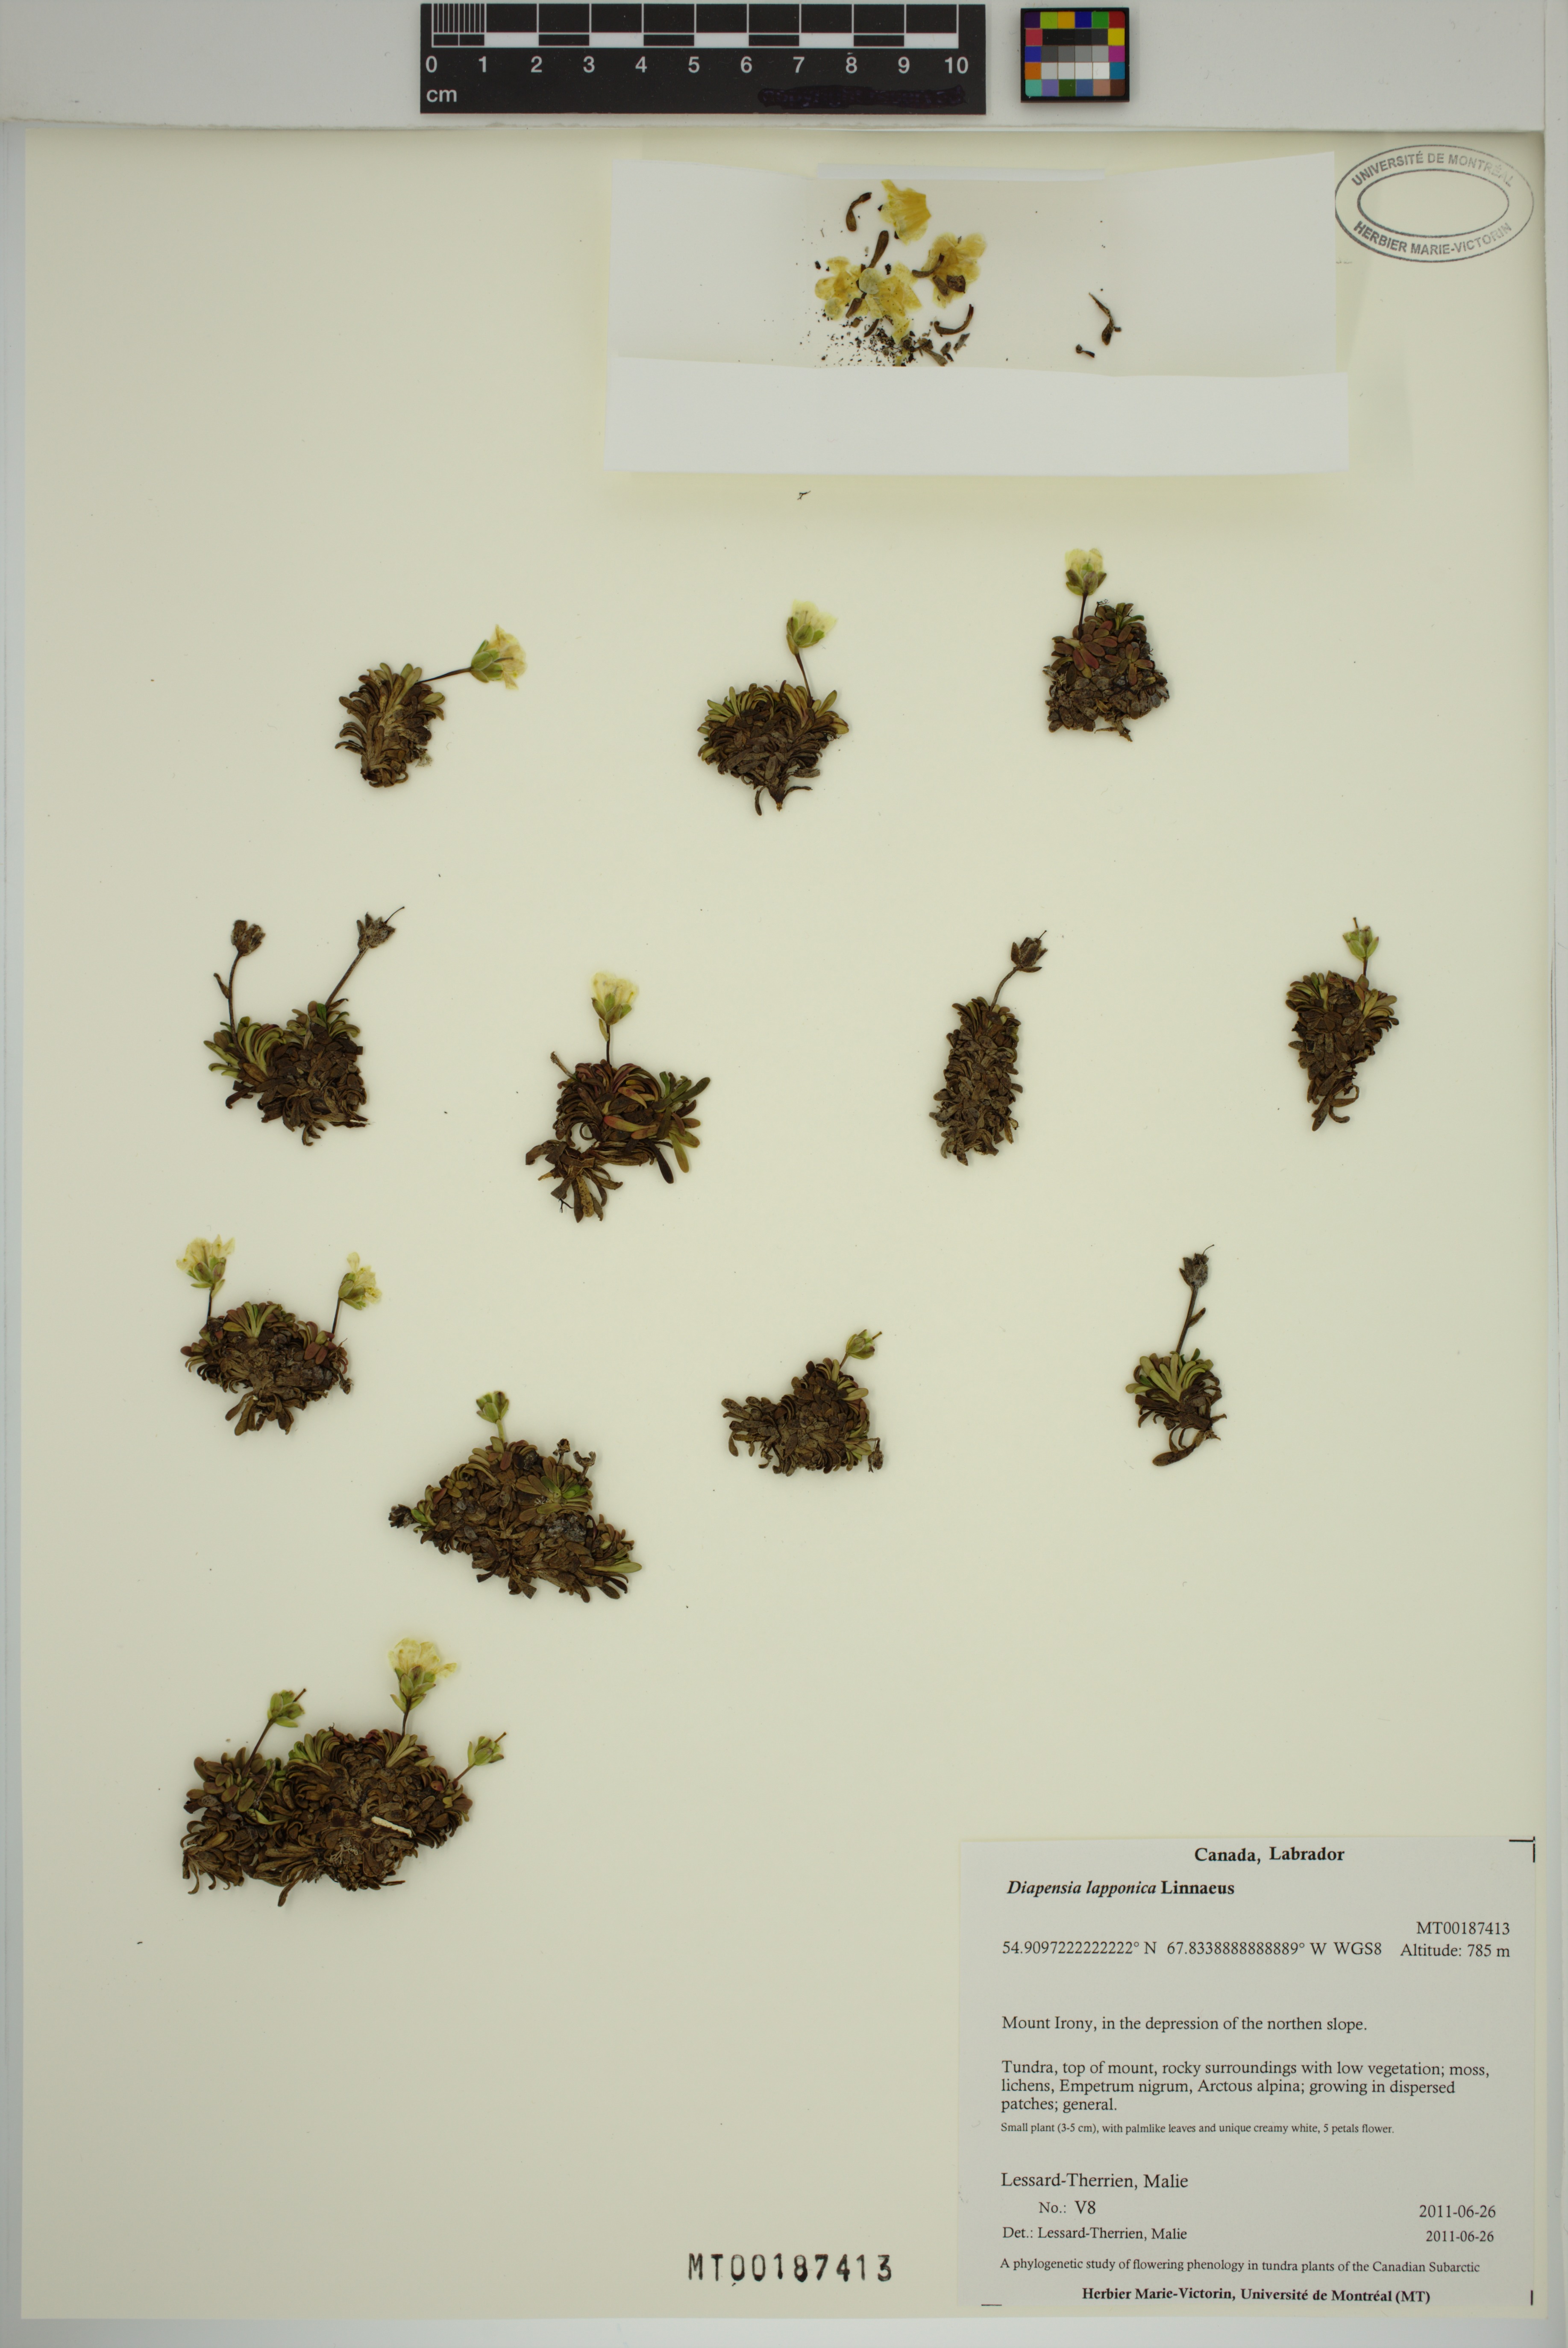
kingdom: Plantae
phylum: Tracheophyta
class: Magnoliopsida
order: Ericales
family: Diapensiaceae
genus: Diapensia
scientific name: Diapensia lapponica
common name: Diapensia
